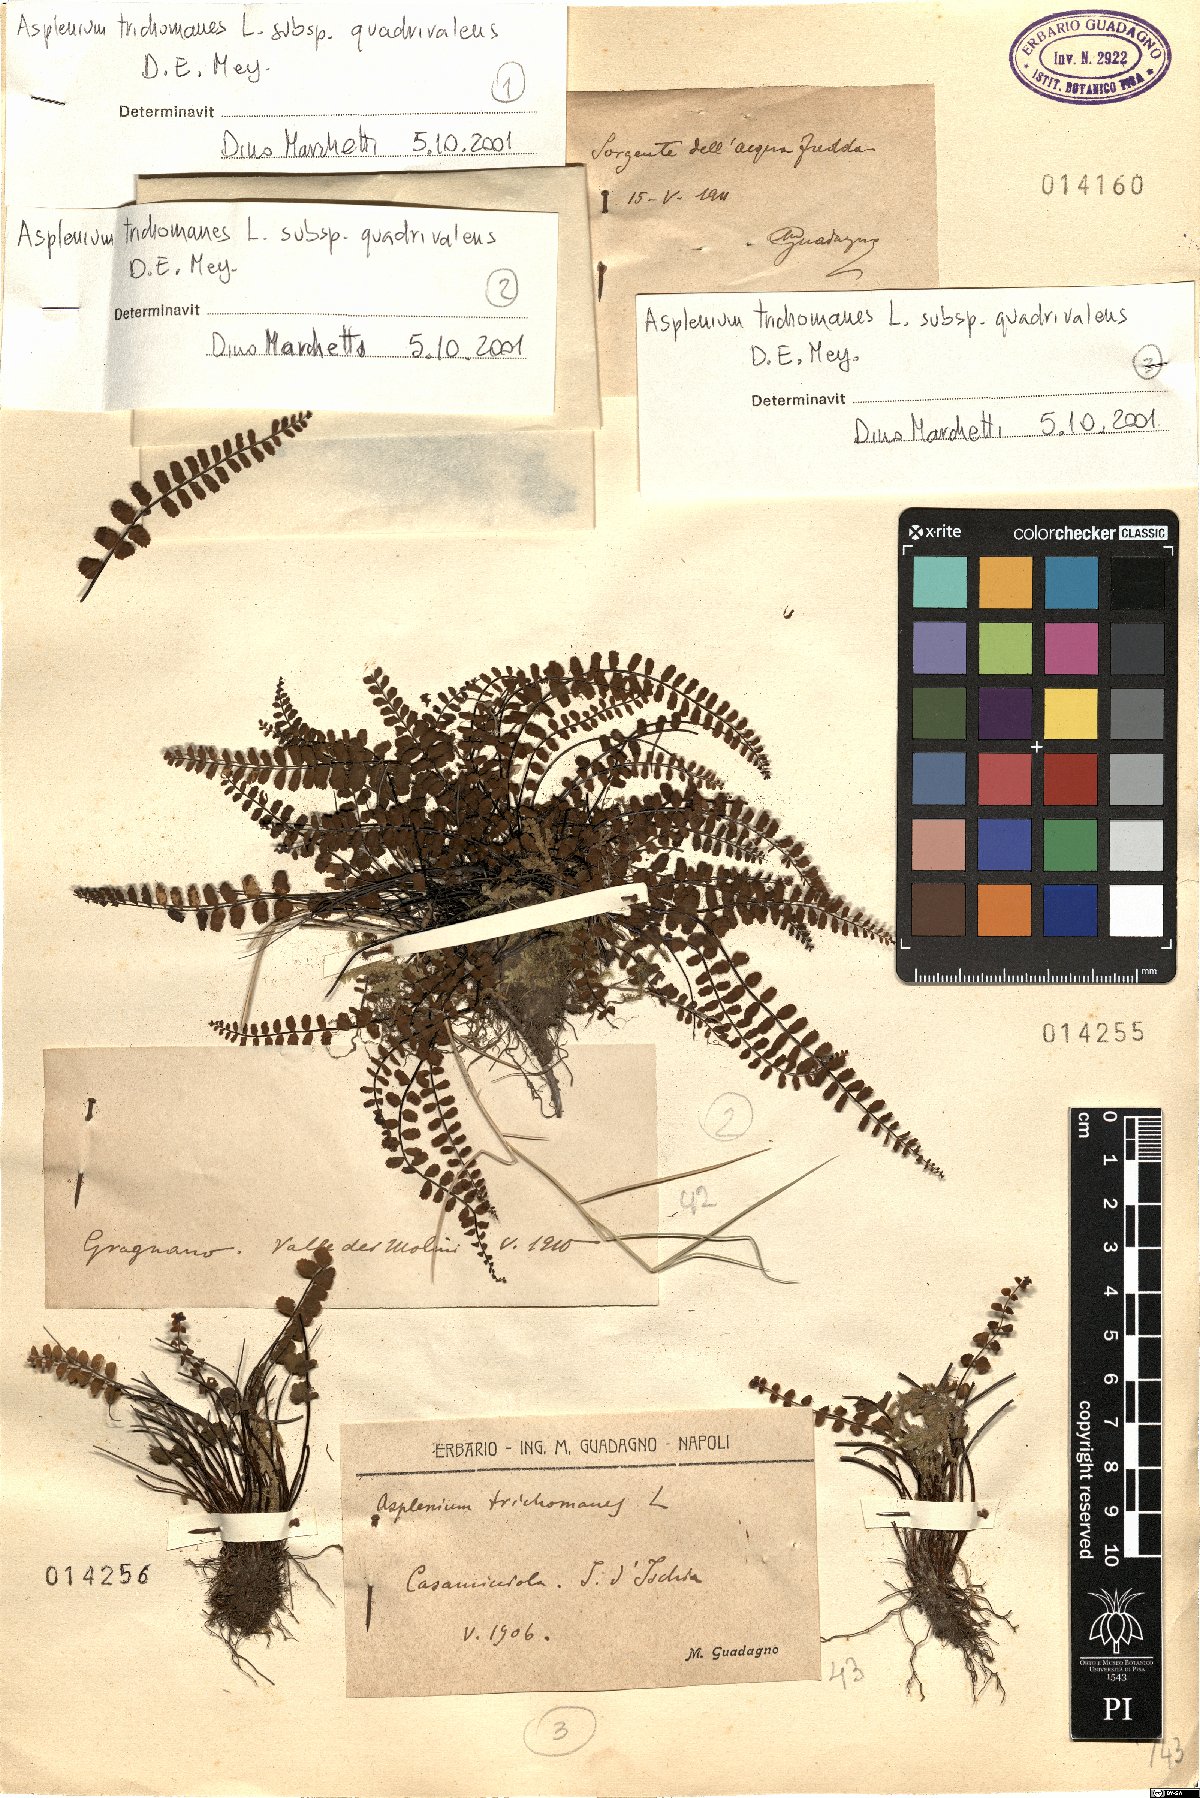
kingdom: Plantae
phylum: Tracheophyta
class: Polypodiopsida
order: Polypodiales
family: Aspleniaceae
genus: Asplenium
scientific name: Asplenium quadrivalens
